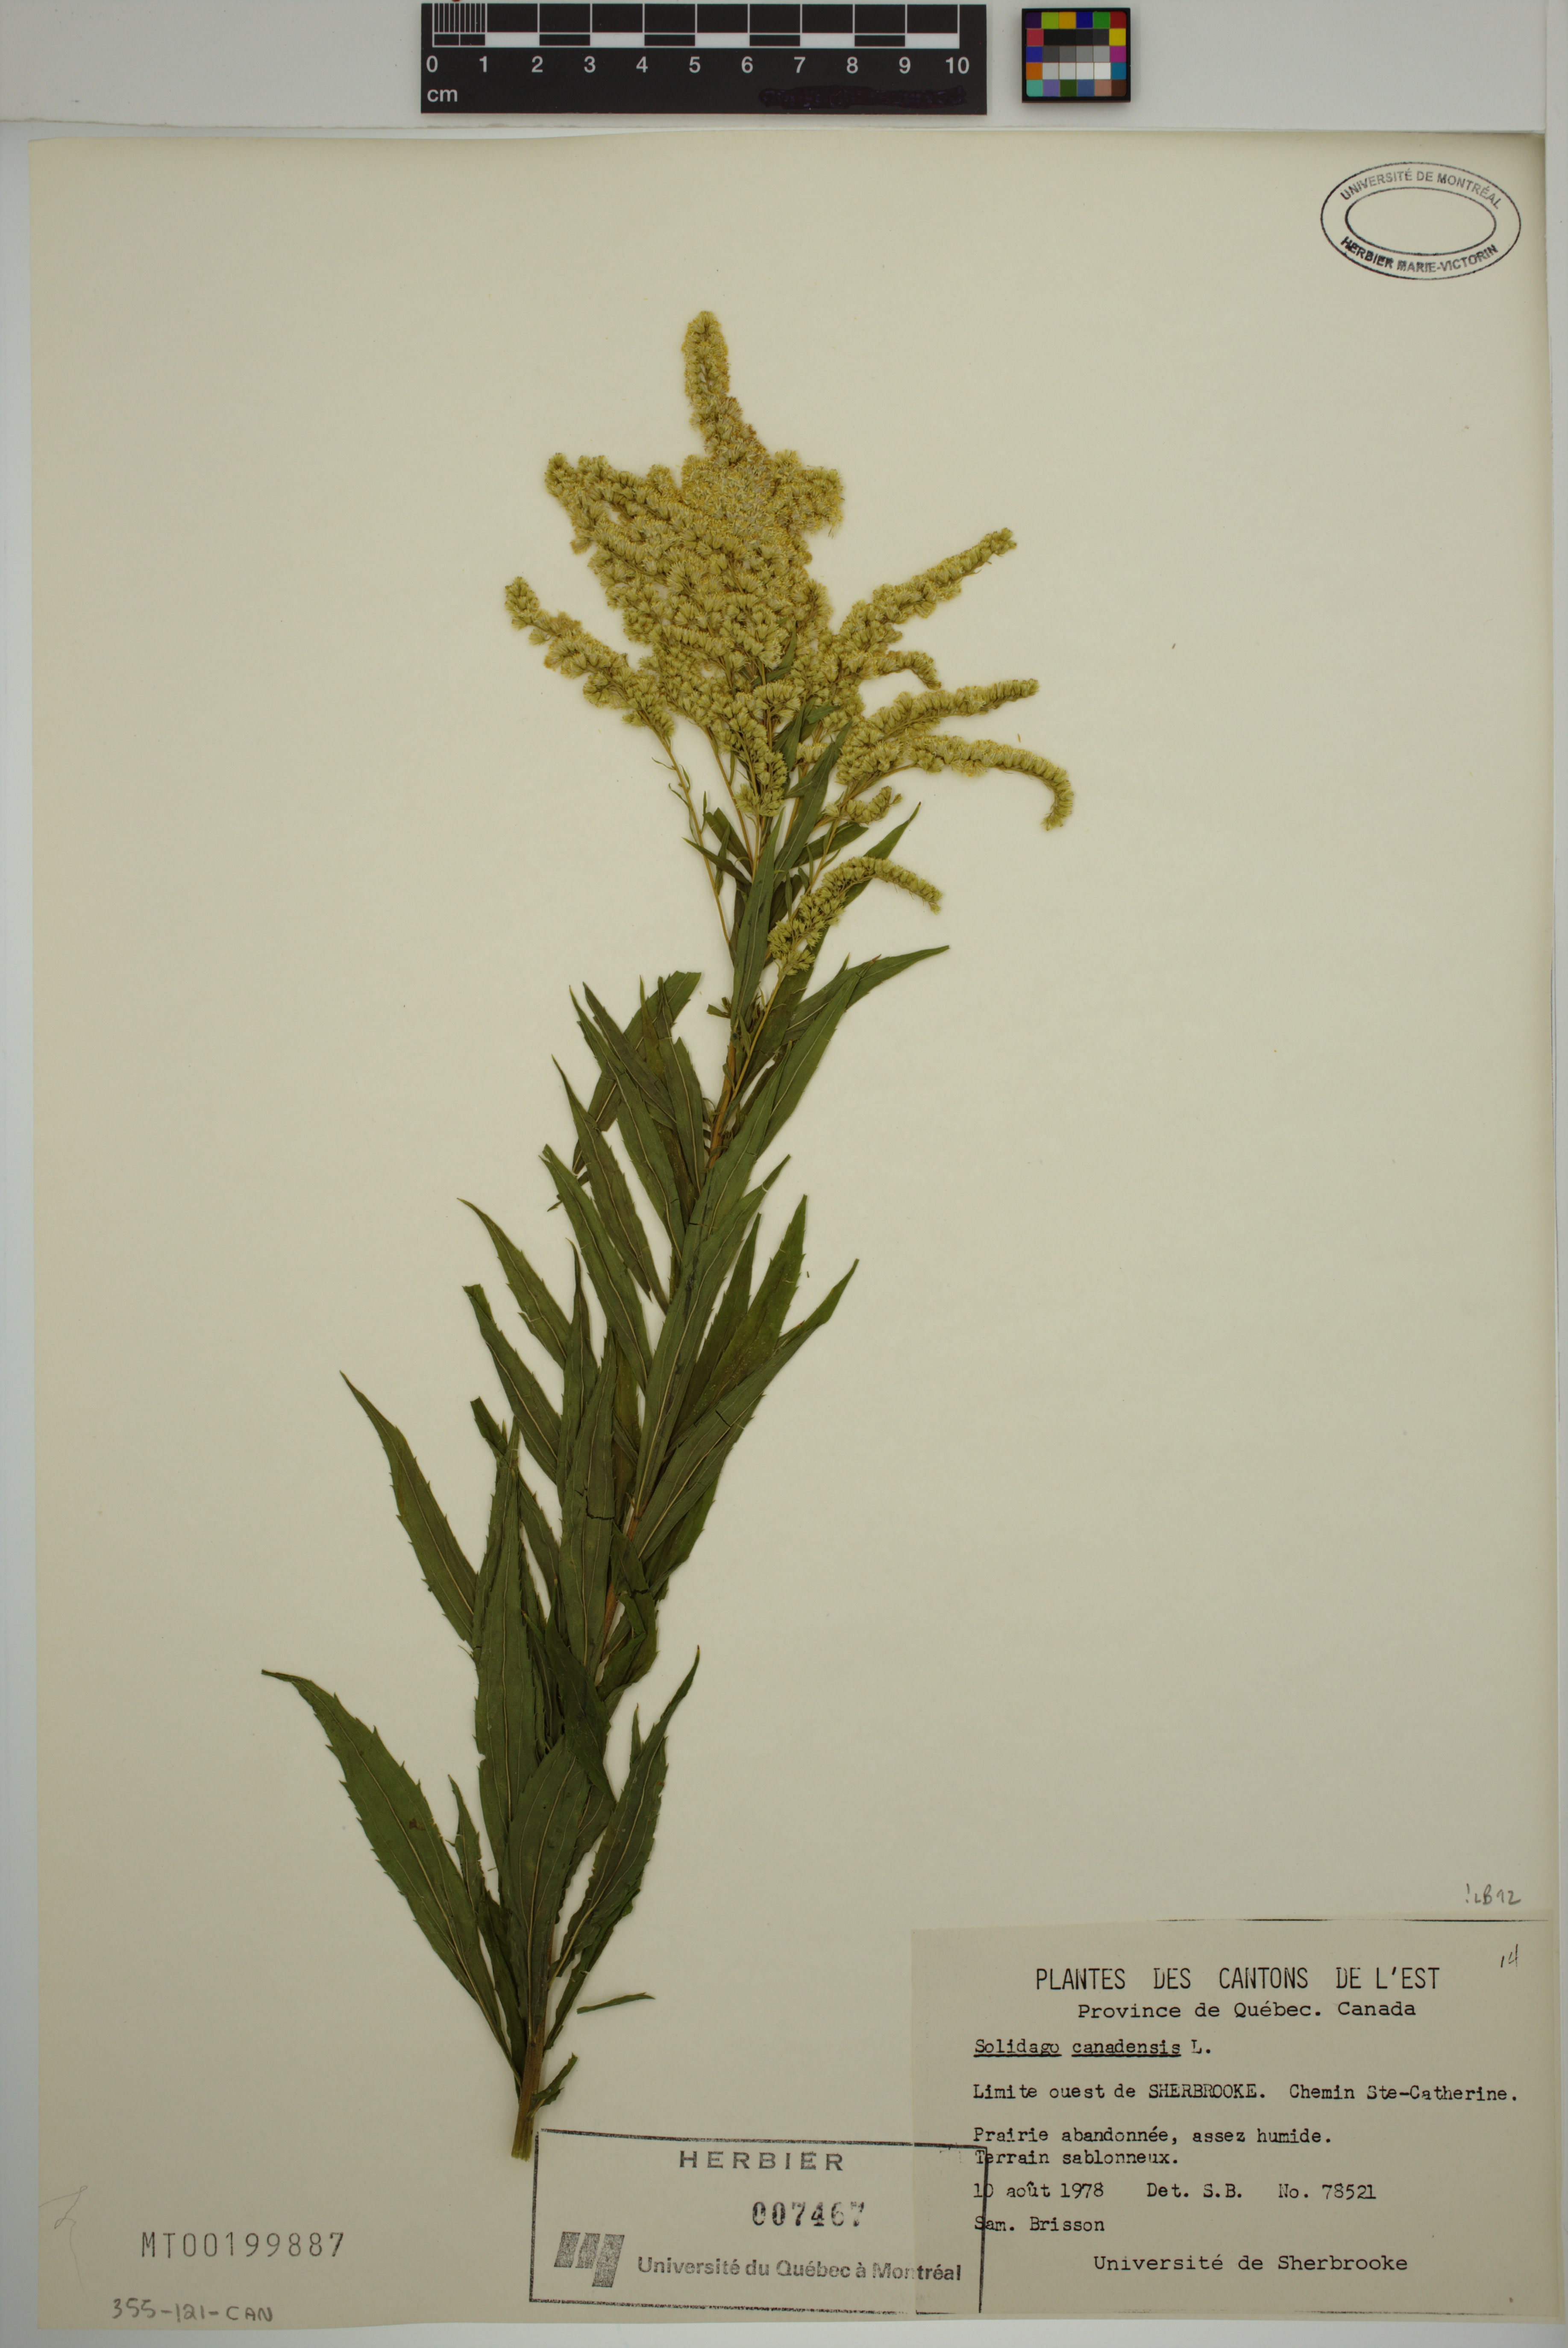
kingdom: Plantae
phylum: Tracheophyta
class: Magnoliopsida
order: Asterales
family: Asteraceae
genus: Solidago
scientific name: Solidago canadensis
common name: Canada goldenrod
